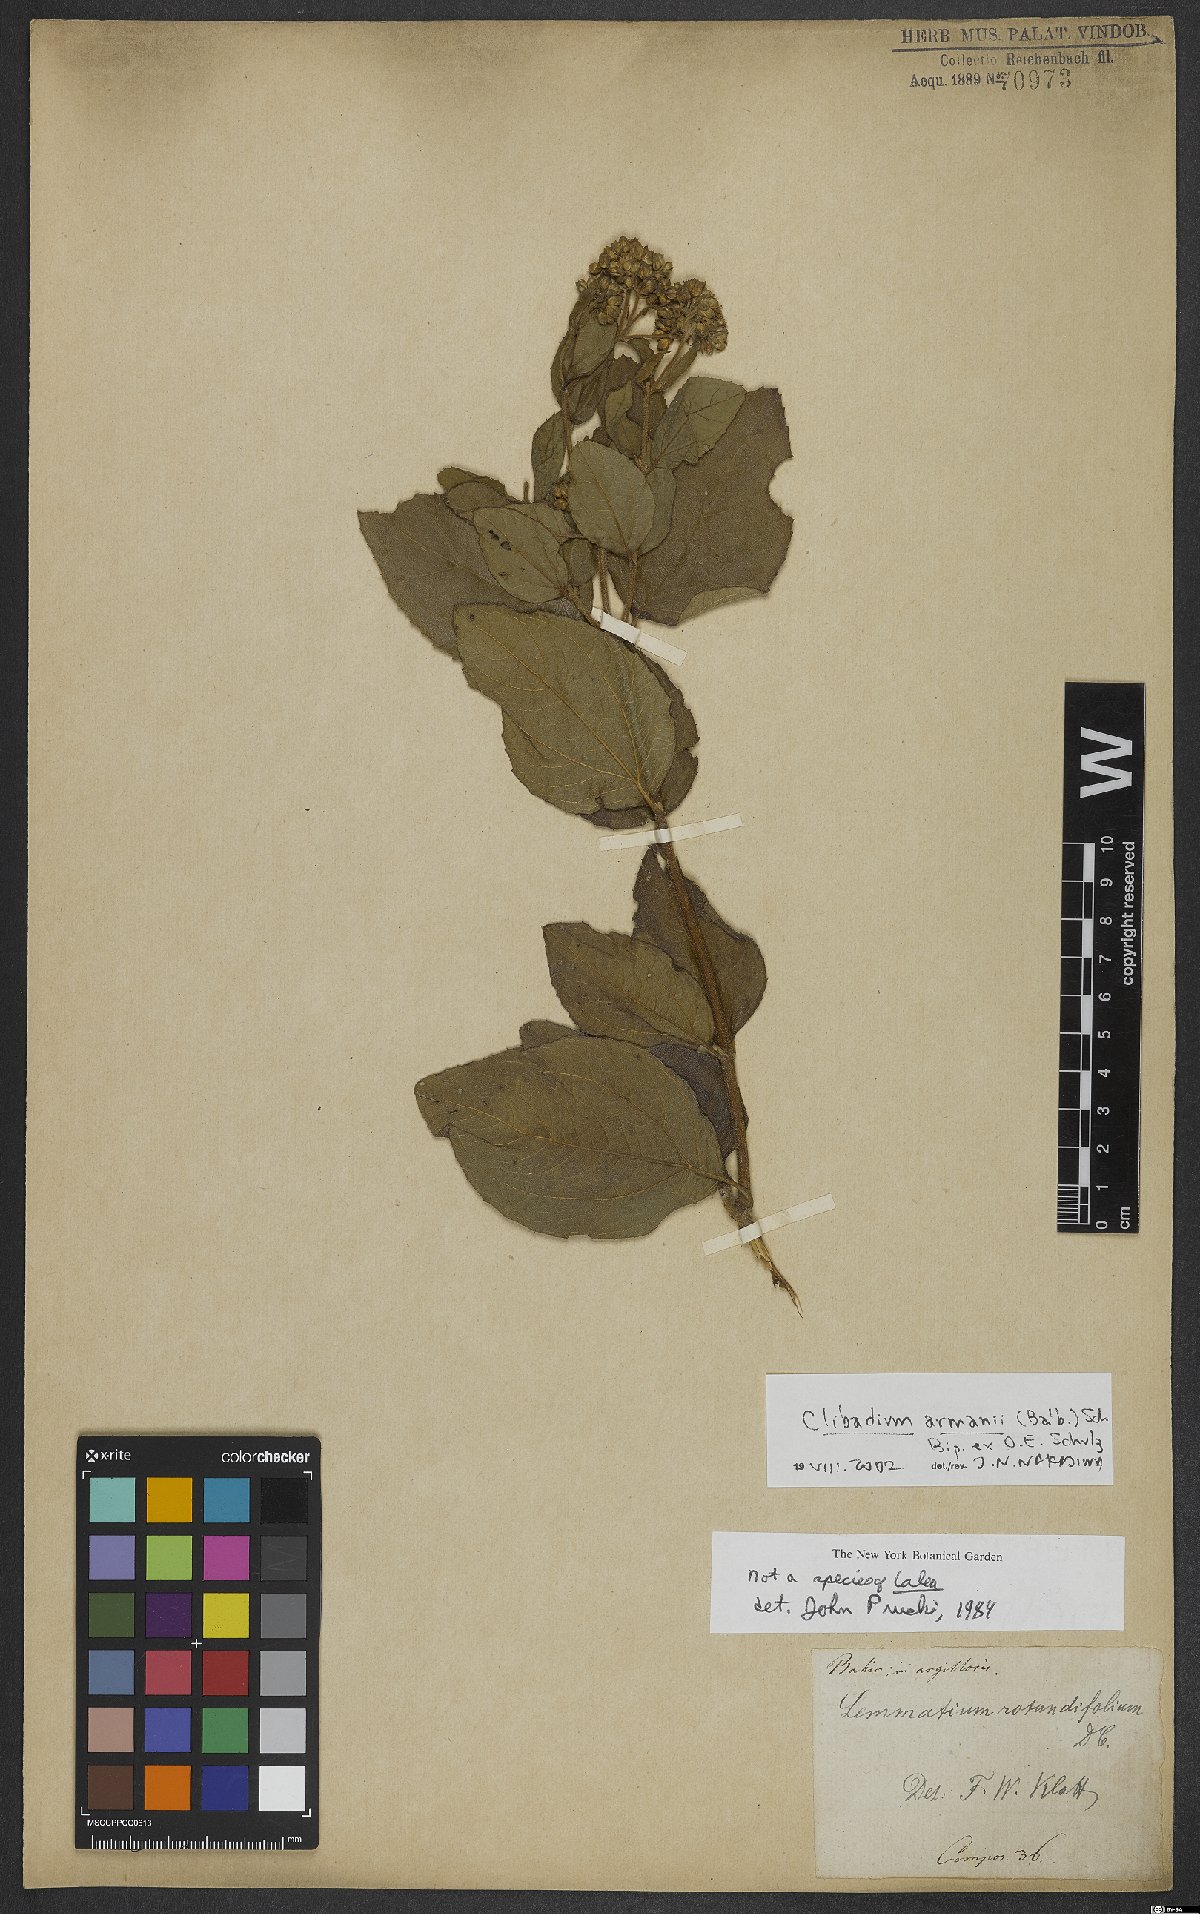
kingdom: Plantae
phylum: Tracheophyta
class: Magnoliopsida
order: Asterales
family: Asteraceae
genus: Clibadium
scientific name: Clibadium armanii
